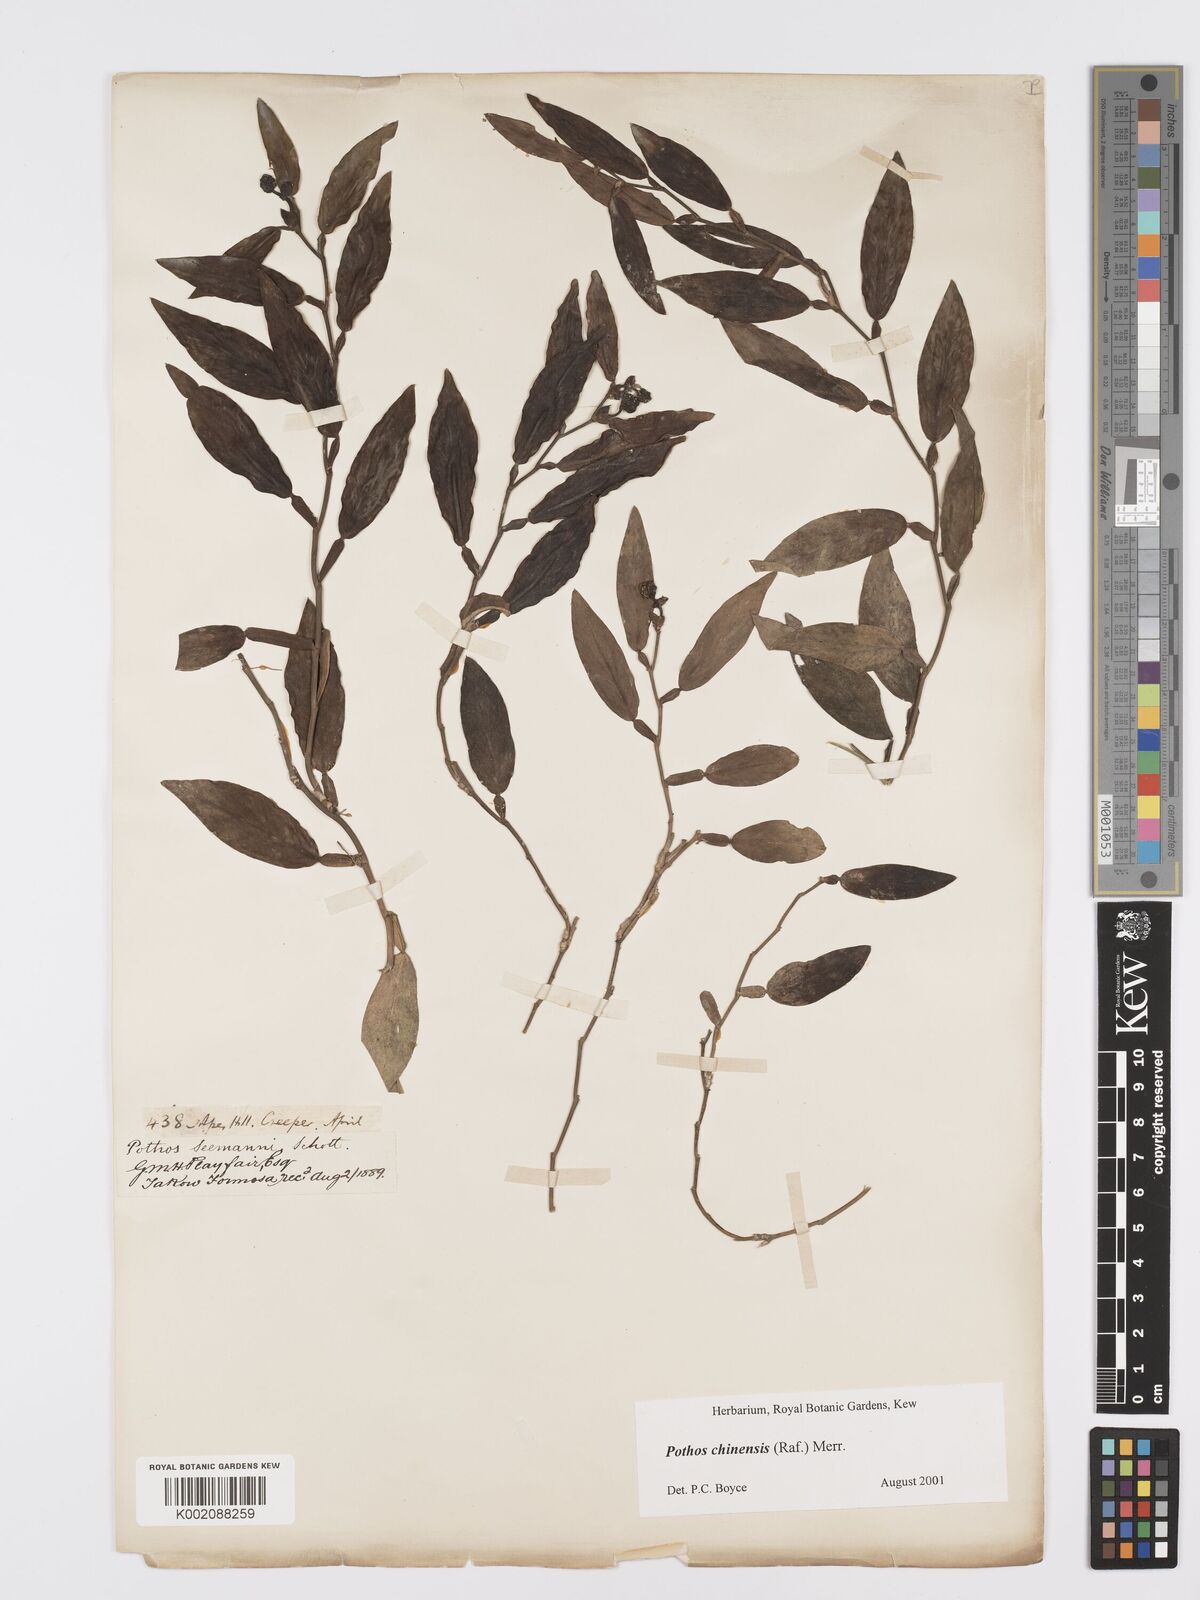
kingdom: Plantae
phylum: Tracheophyta
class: Liliopsida
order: Alismatales
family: Araceae
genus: Pothos
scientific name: Pothos chinensis
